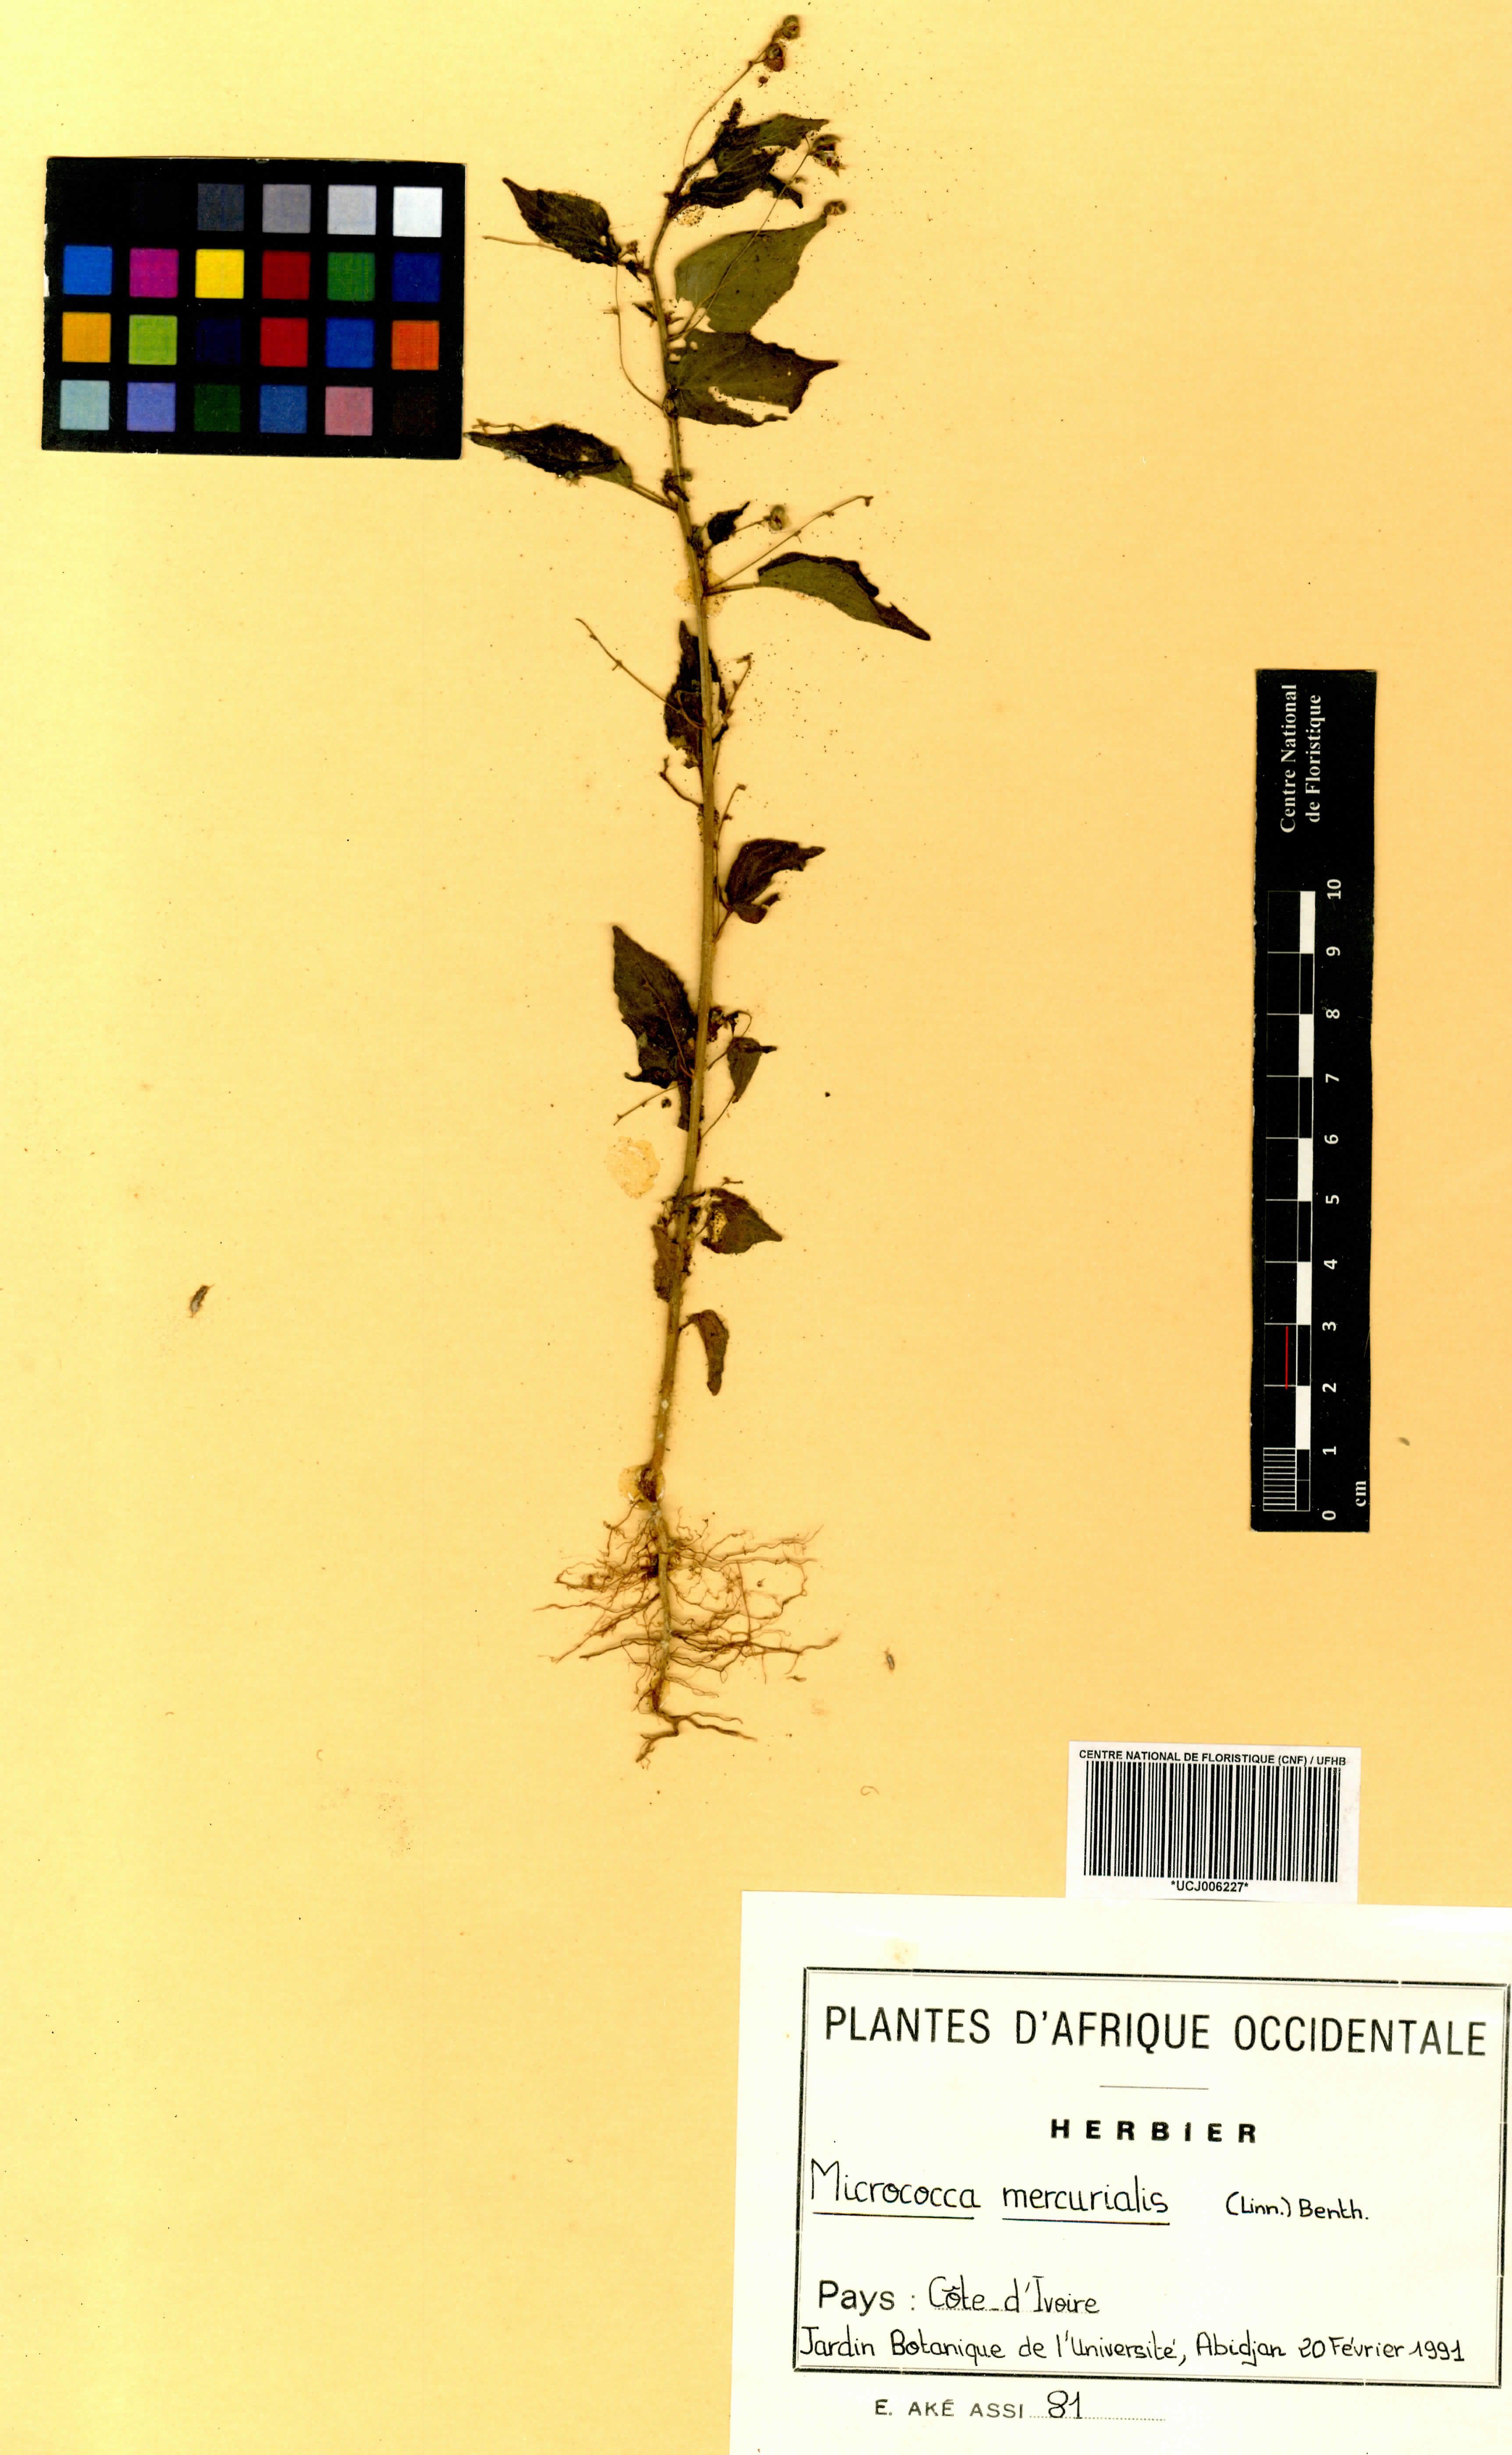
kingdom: Plantae
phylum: Tracheophyta
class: Magnoliopsida
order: Malpighiales
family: Euphorbiaceae
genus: Micrococca
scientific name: Micrococca mercurialis
